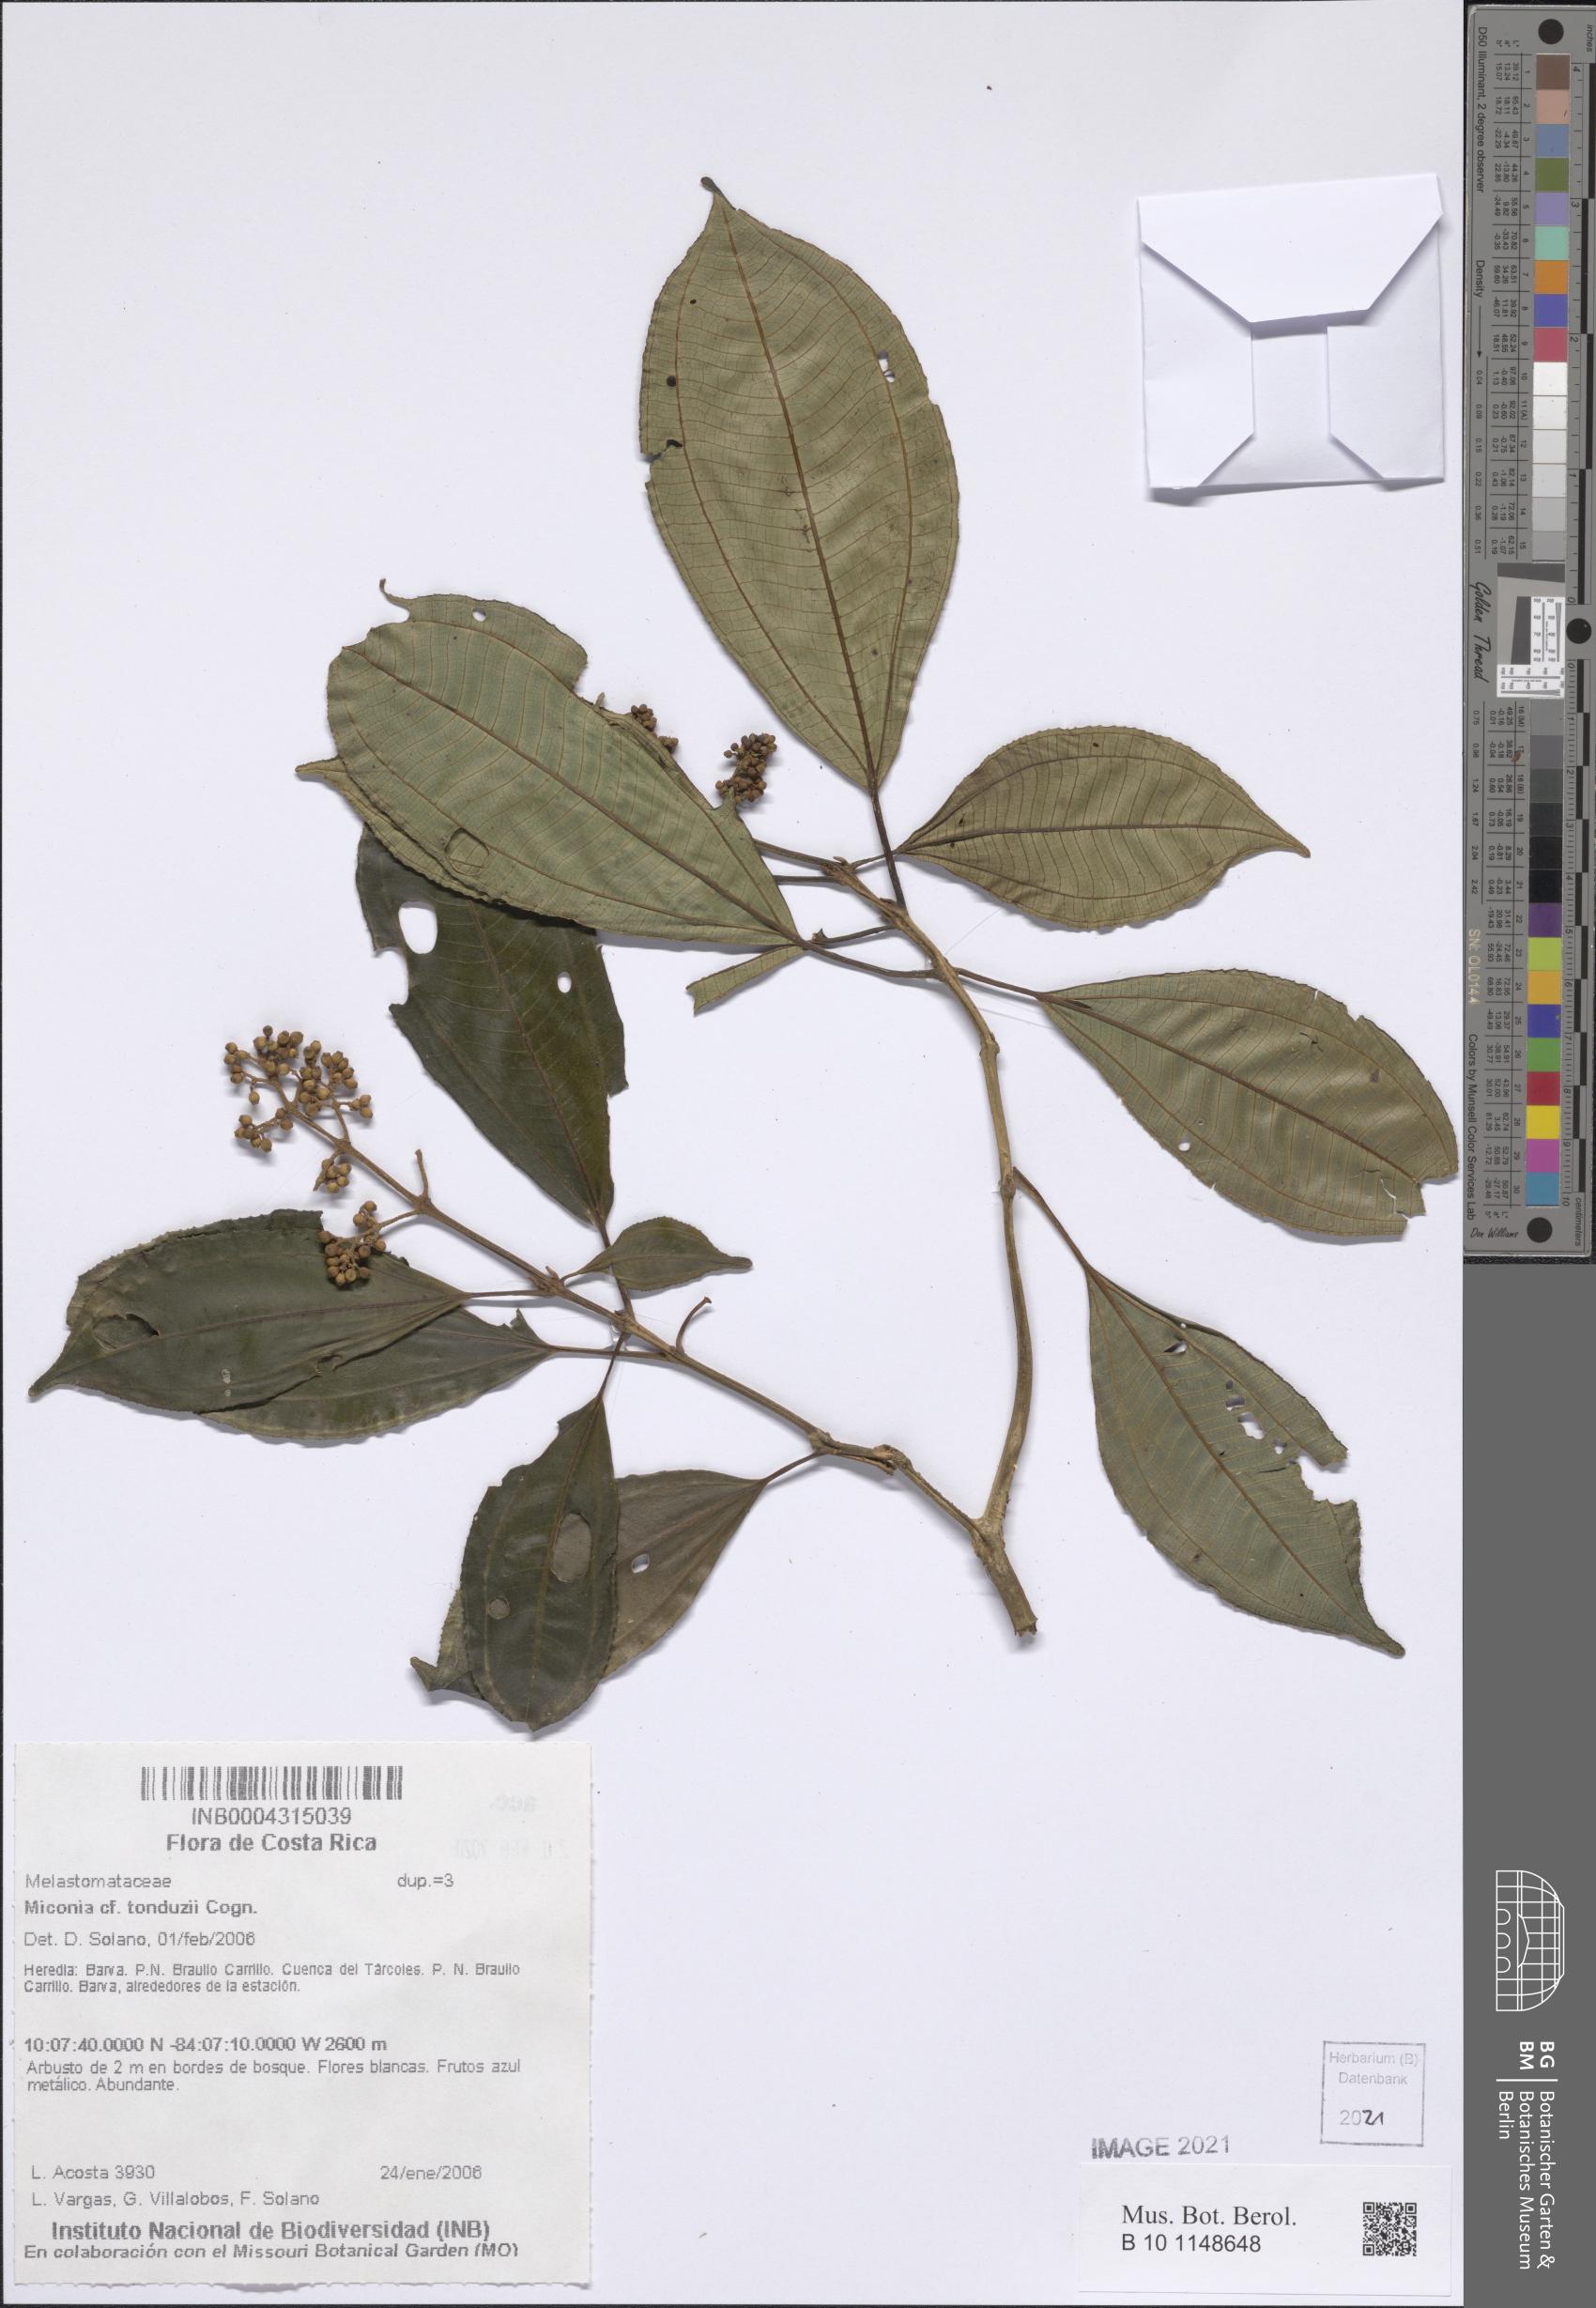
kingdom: Plantae
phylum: Tracheophyta
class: Magnoliopsida
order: Myrtales
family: Melastomataceae
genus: Miconia
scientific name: Miconia tonduzii
